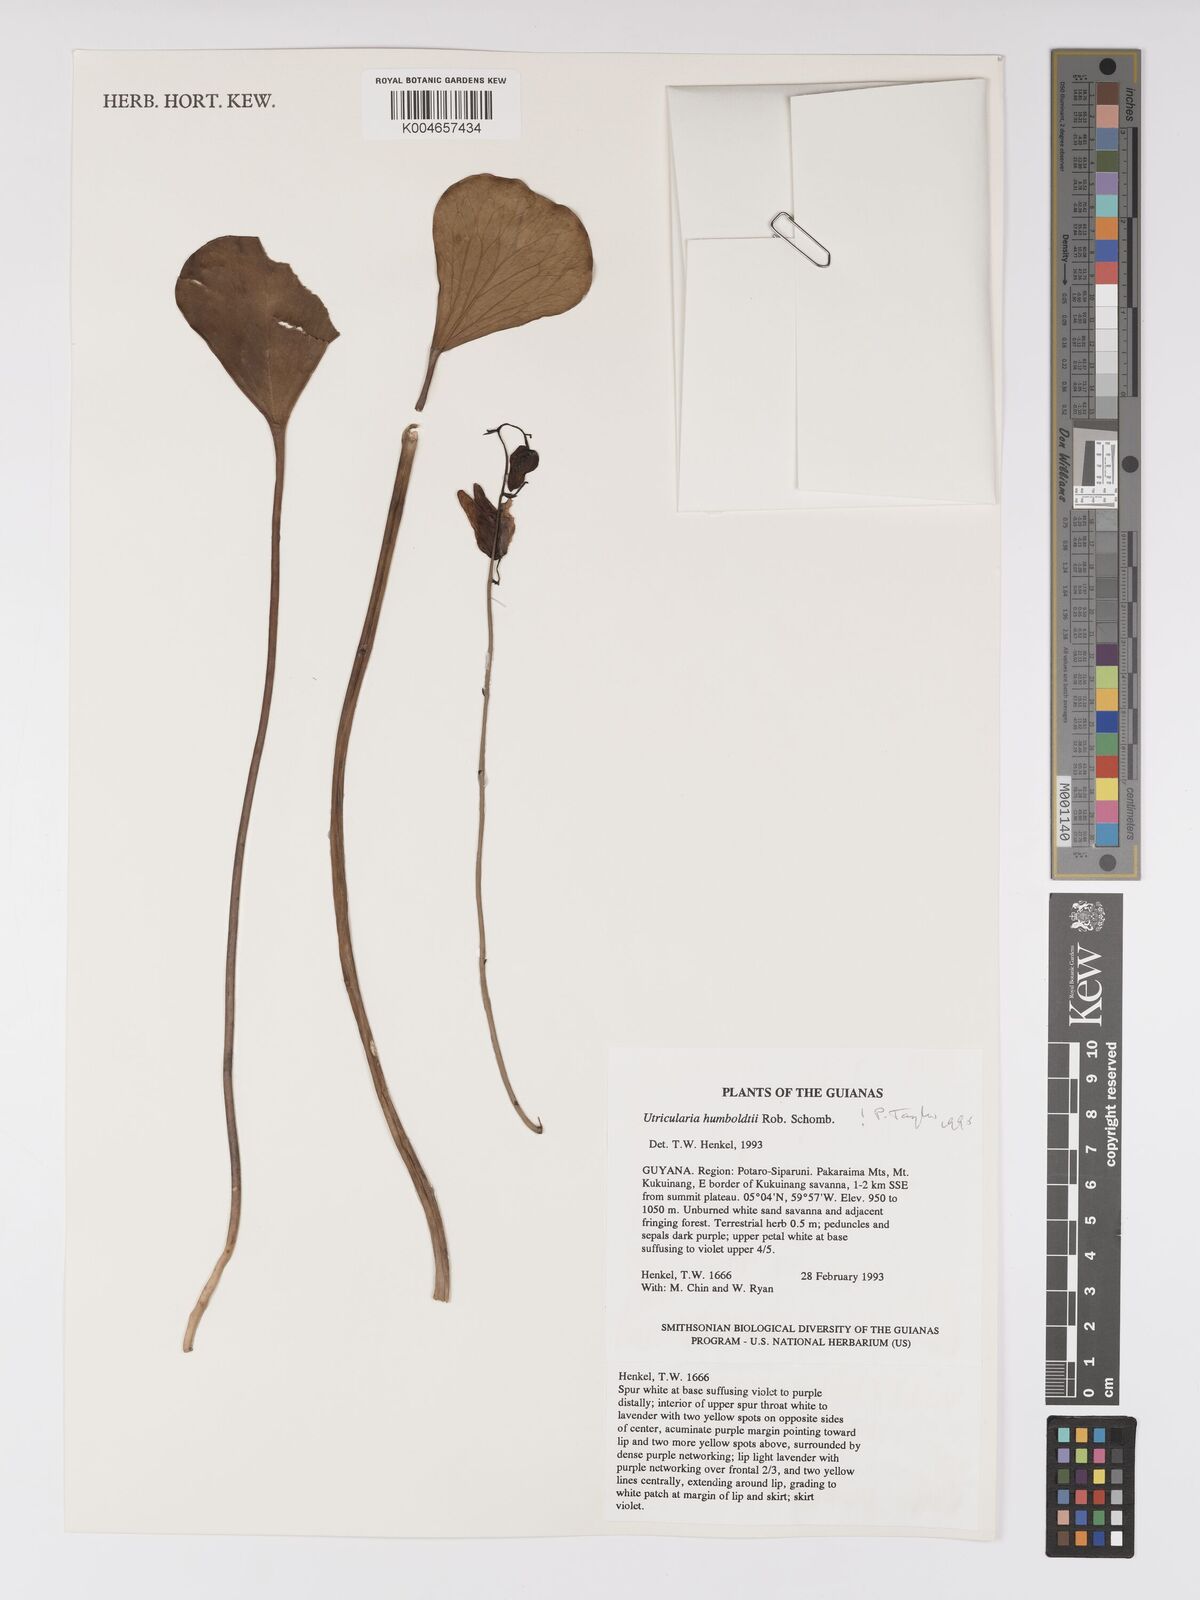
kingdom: Plantae
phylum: Tracheophyta
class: Magnoliopsida
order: Lamiales
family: Lentibulariaceae
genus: Utricularia
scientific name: Utricularia humboldtii
